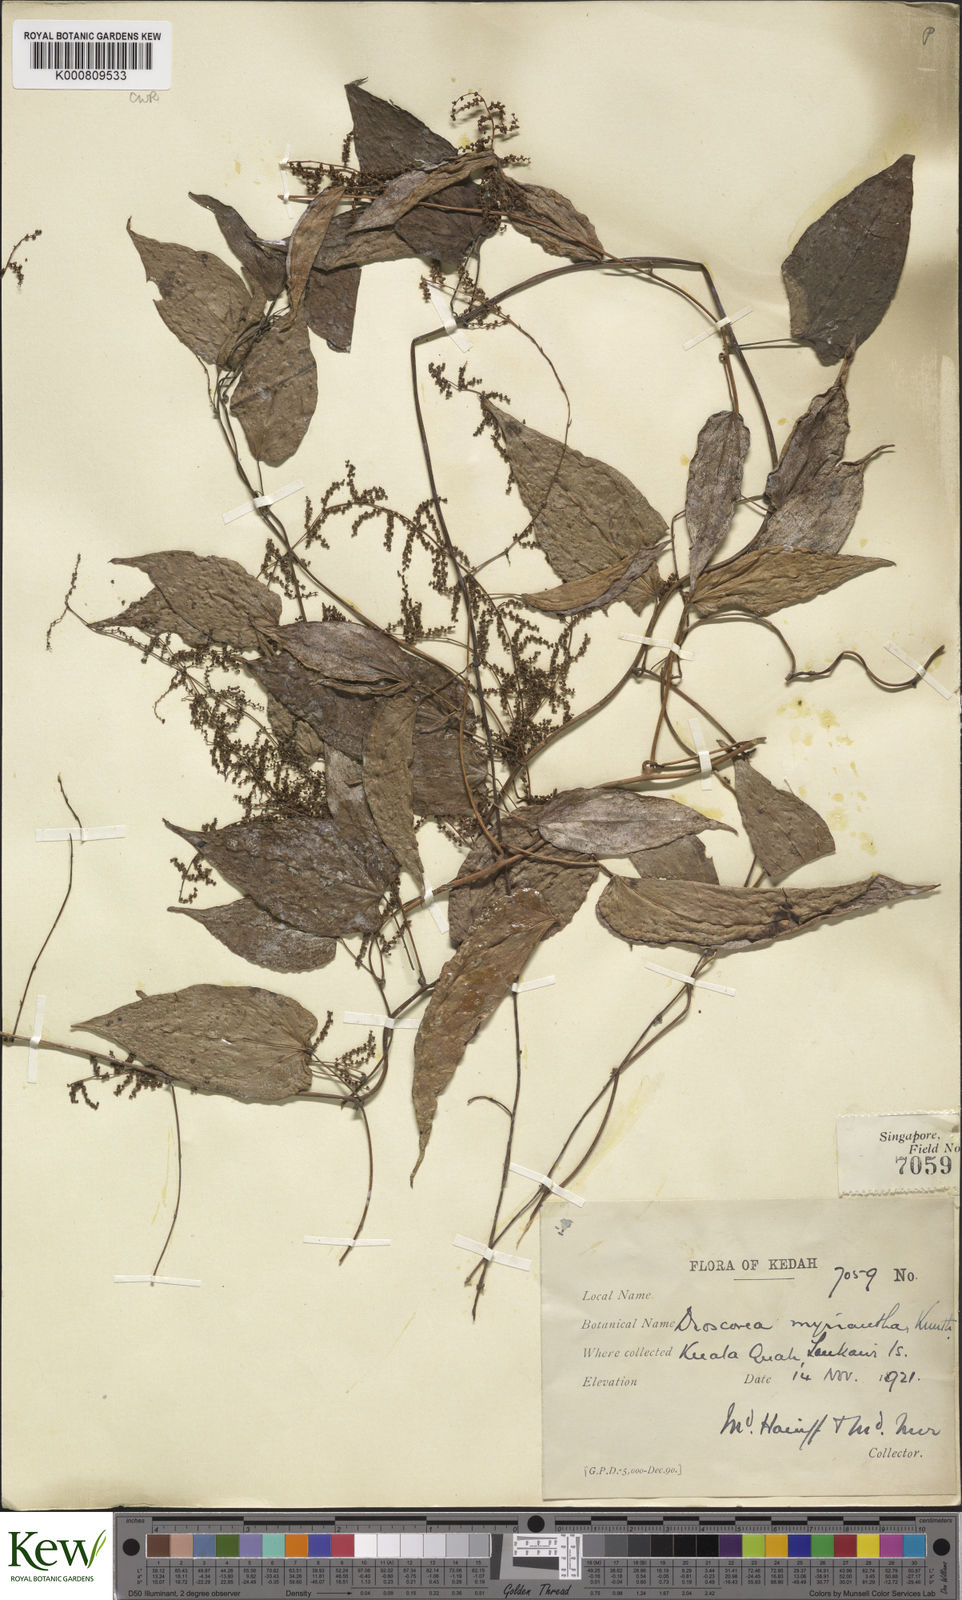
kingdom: Plantae
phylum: Tracheophyta
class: Liliopsida
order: Dioscoreales
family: Dioscoreaceae
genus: Dioscorea
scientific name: Dioscorea filiformis
